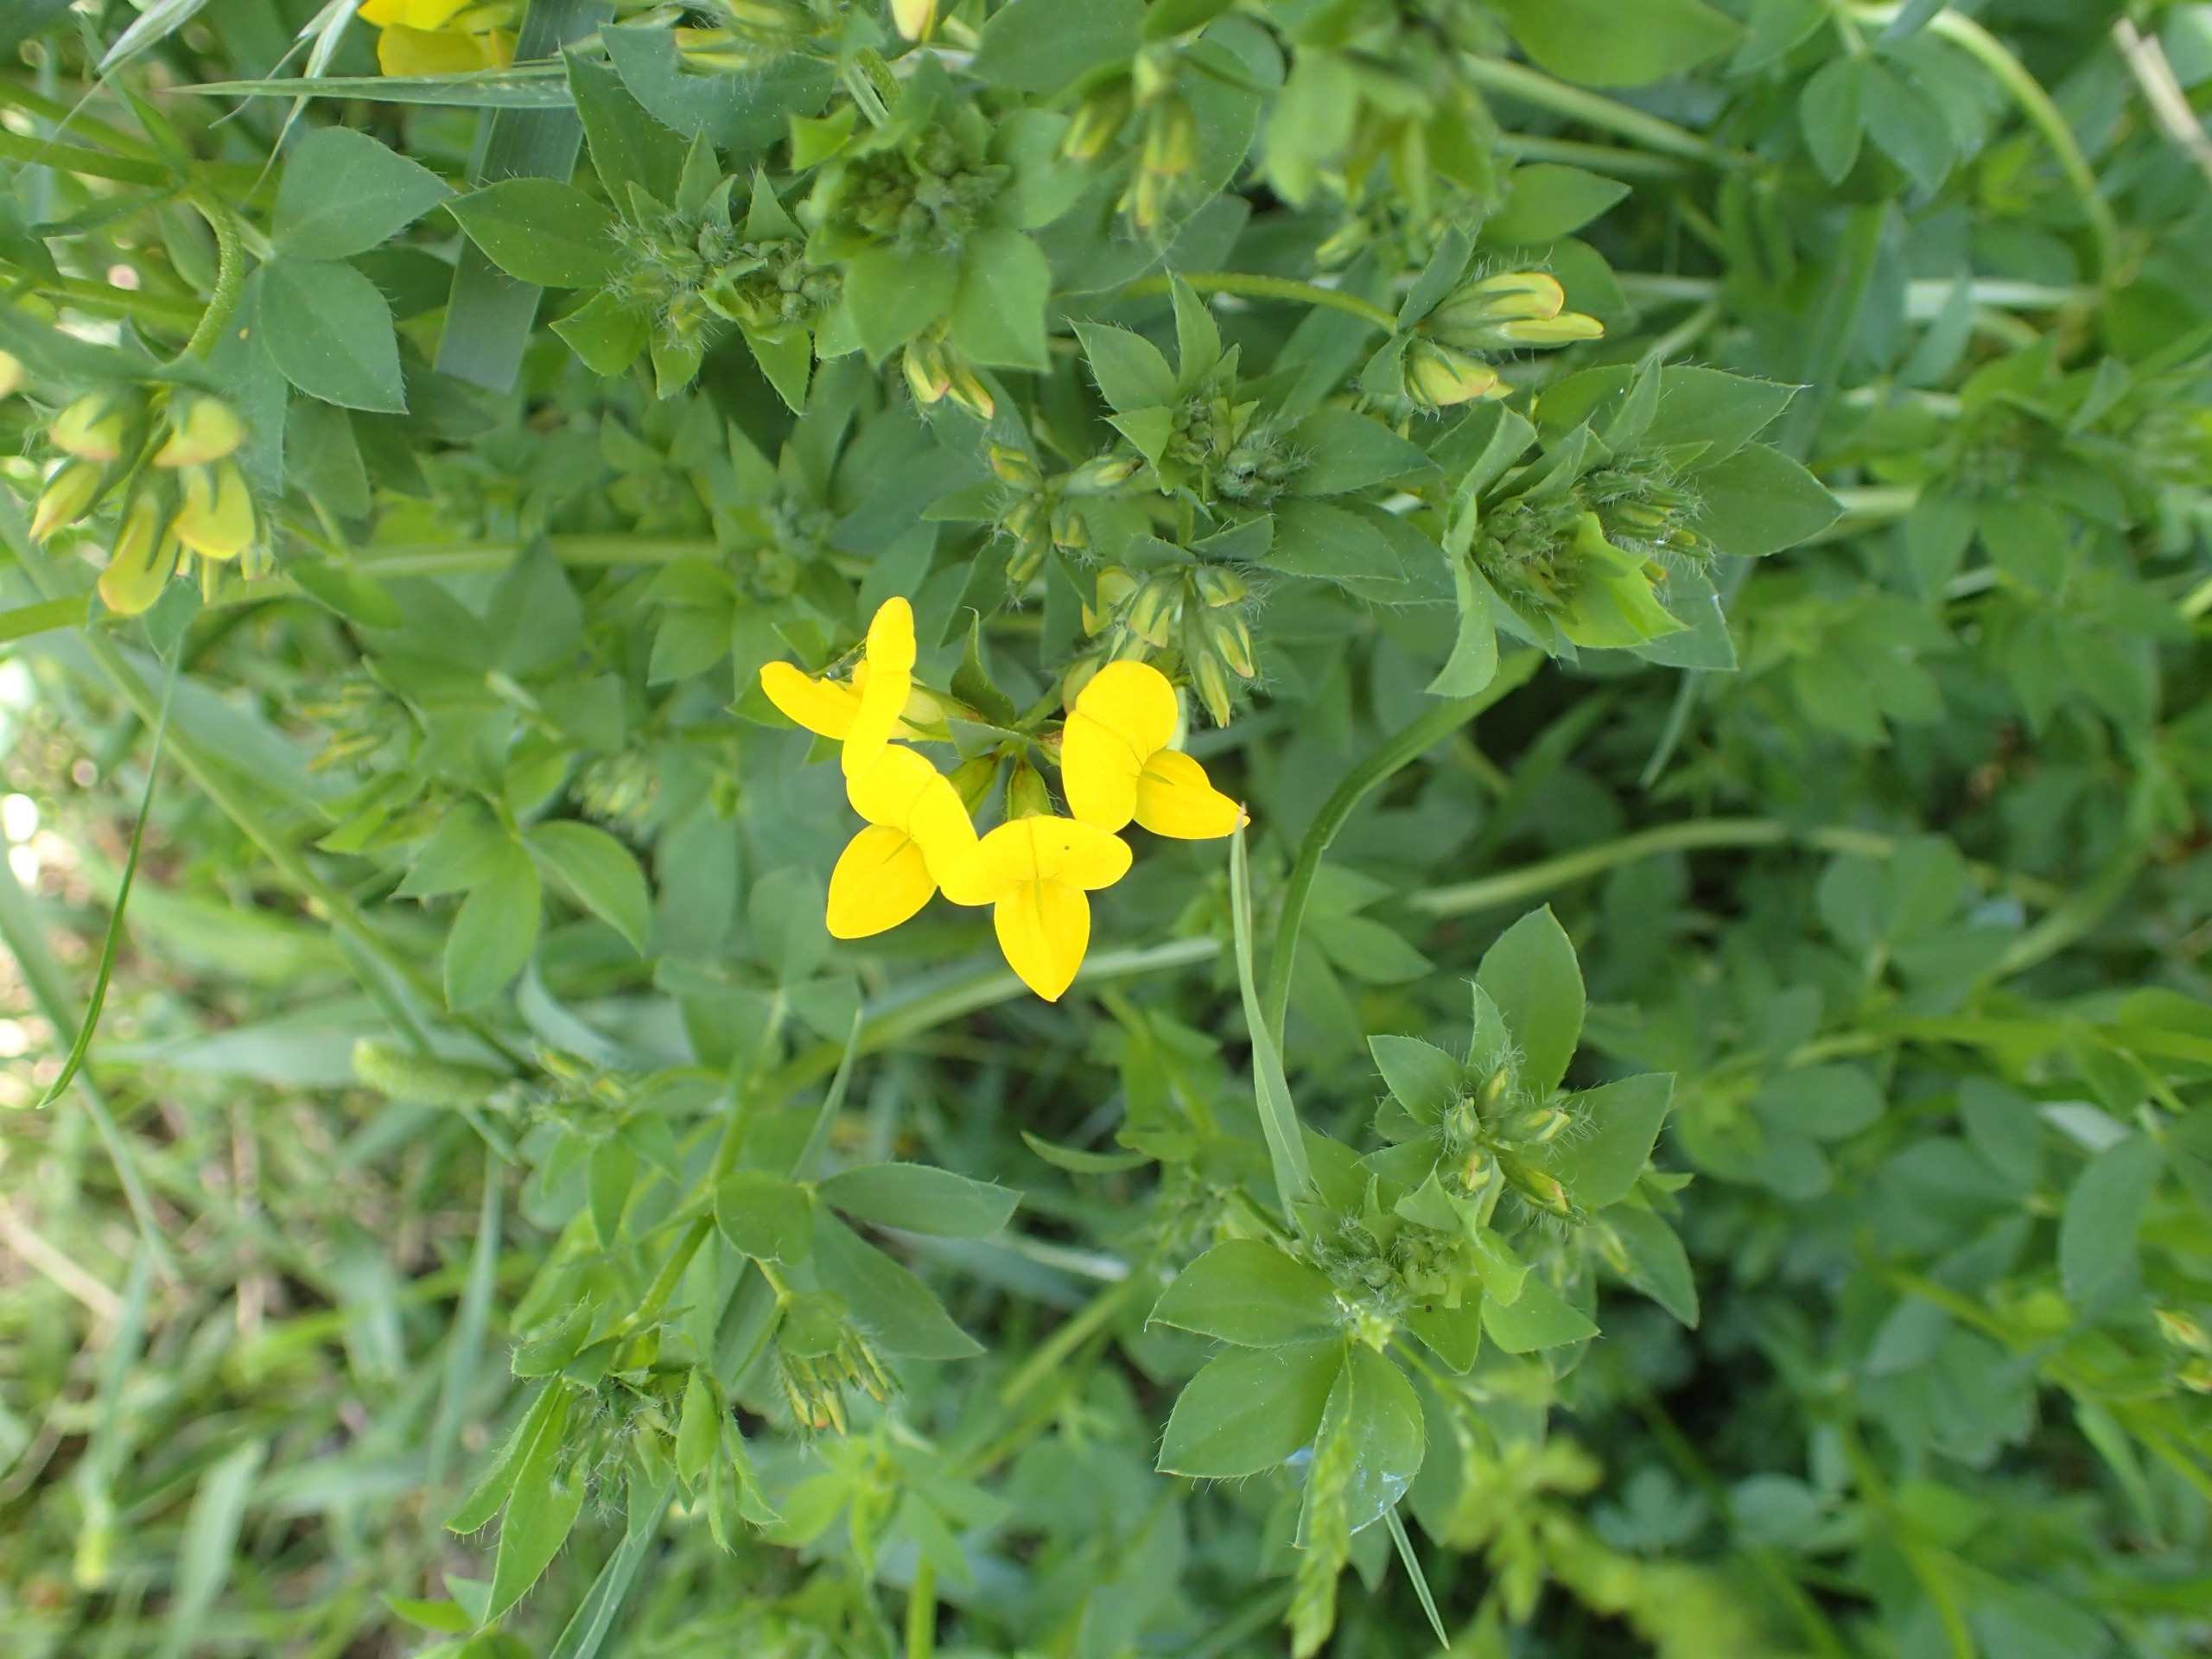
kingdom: Plantae
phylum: Tracheophyta
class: Magnoliopsida
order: Fabales
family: Fabaceae
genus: Lotus
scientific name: Lotus corniculatus
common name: Almindelig kællingetand
